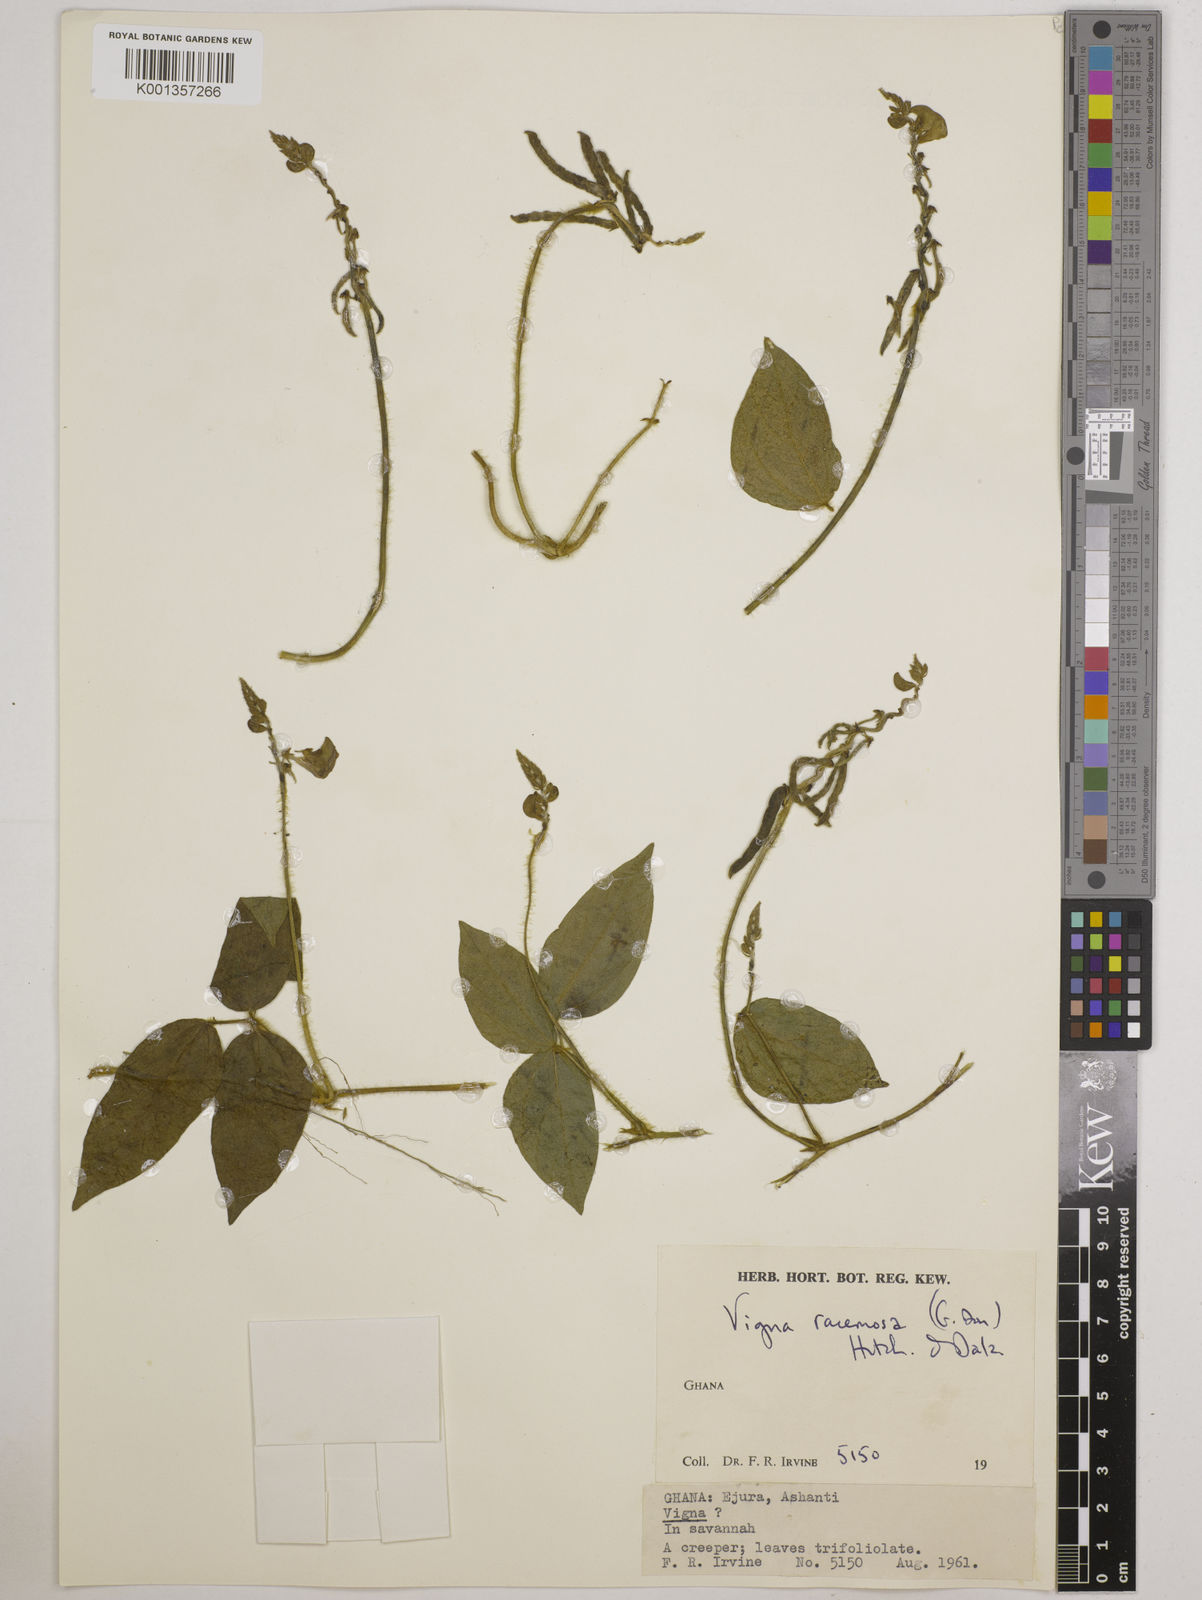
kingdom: Plantae
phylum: Tracheophyta
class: Magnoliopsida
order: Fabales
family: Fabaceae
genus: Vigna
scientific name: Vigna racemosa
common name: Beans not eaten
